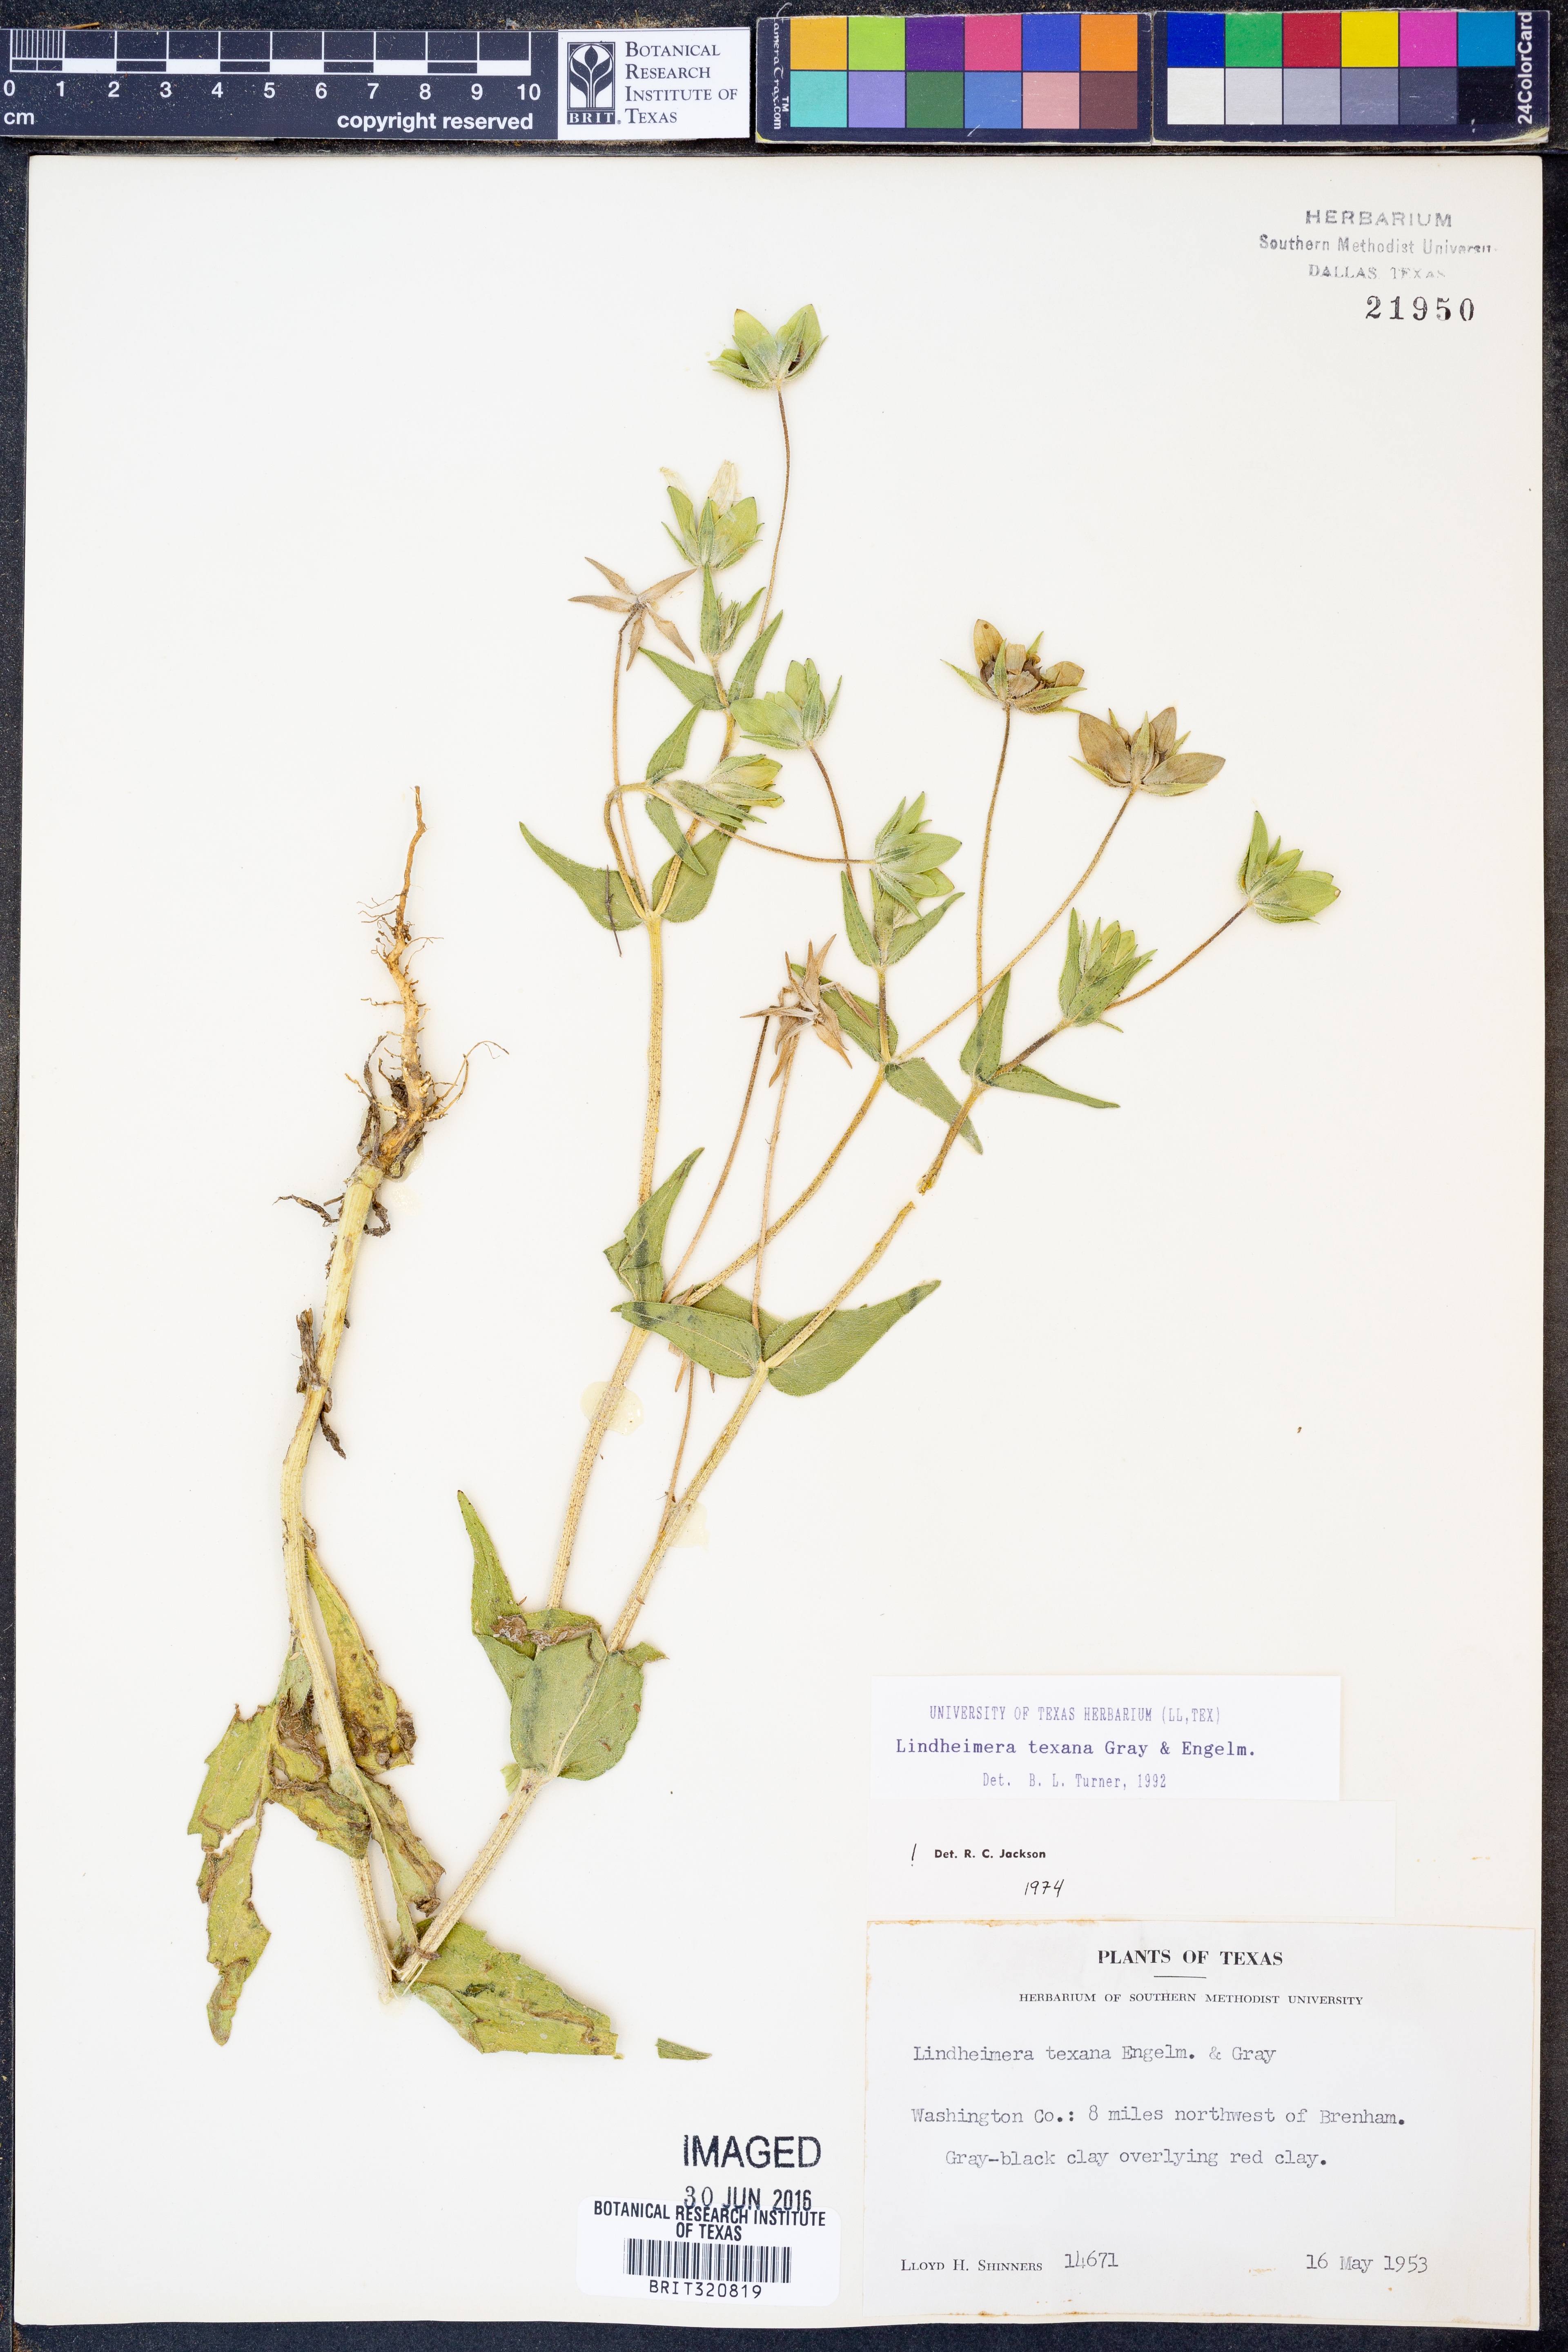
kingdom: Plantae
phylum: Tracheophyta
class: Magnoliopsida
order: Asterales
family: Asteraceae
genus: Lindheimera
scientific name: Lindheimera texana
